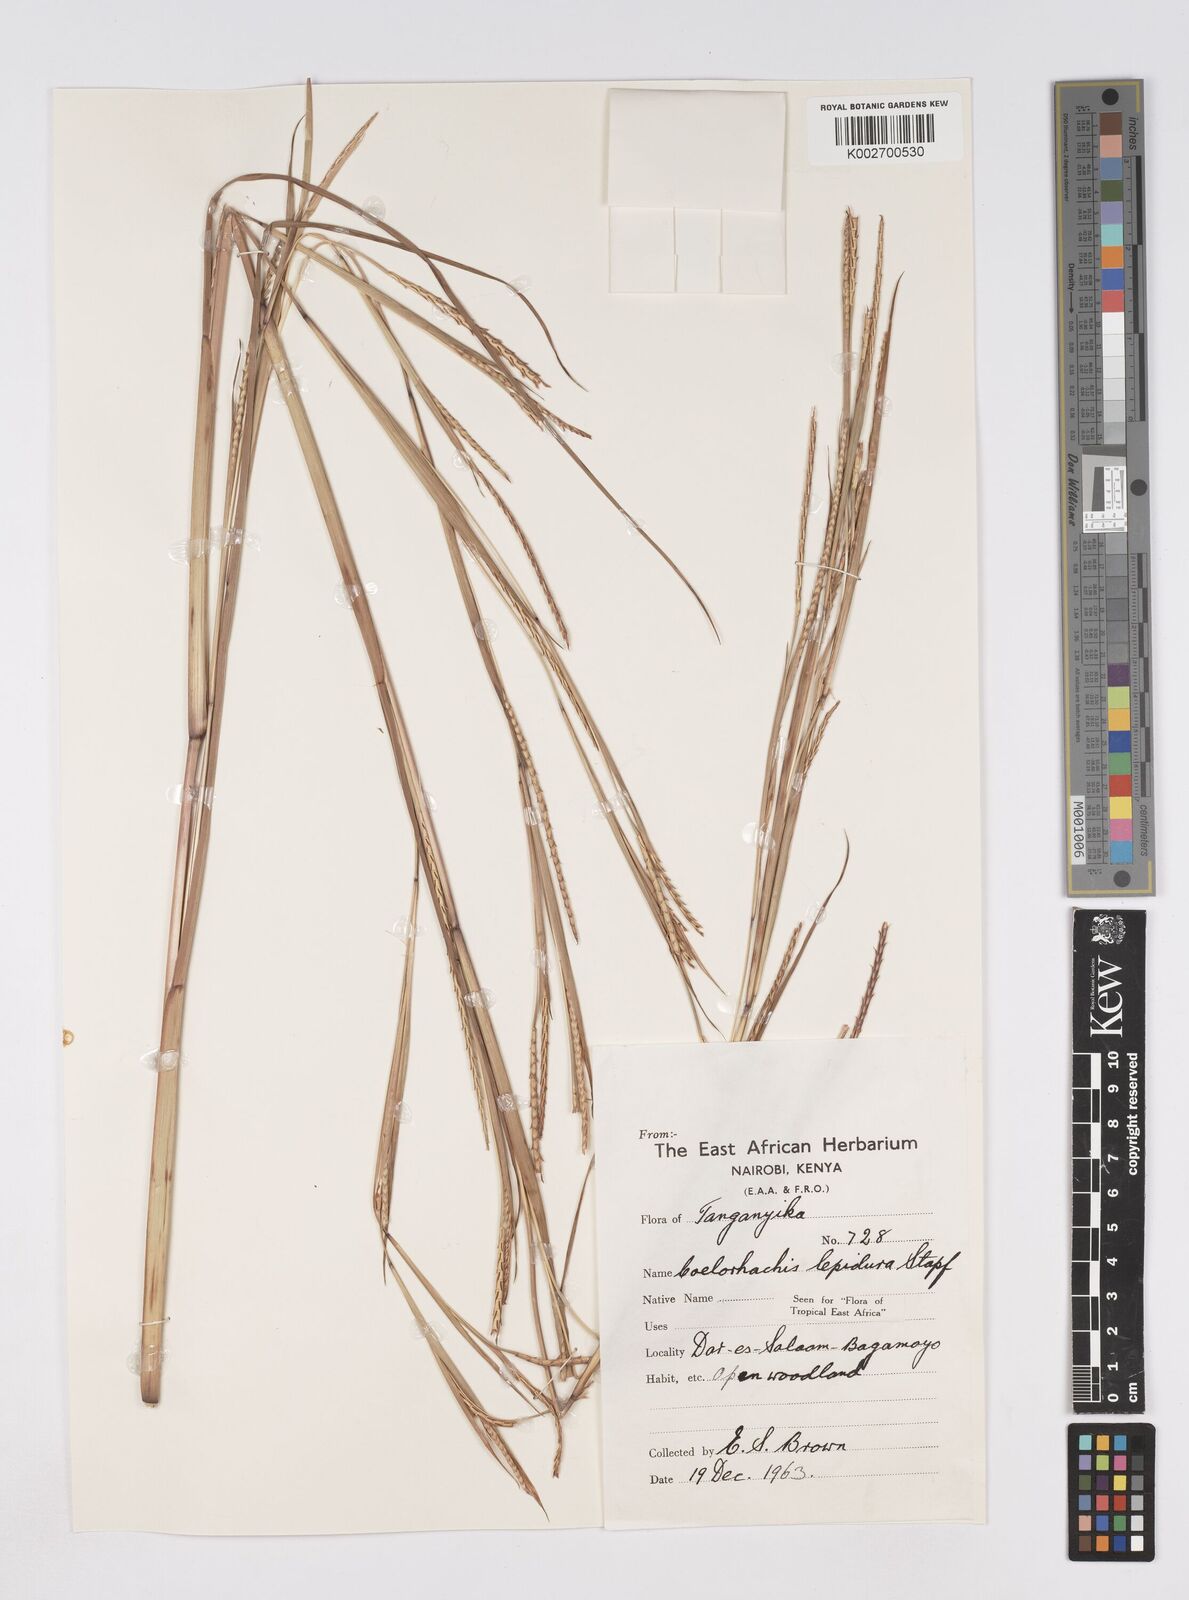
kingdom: Plantae
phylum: Tracheophyta
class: Liliopsida
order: Poales
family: Poaceae
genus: Rottboellia
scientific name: Rottboellia lepidura
